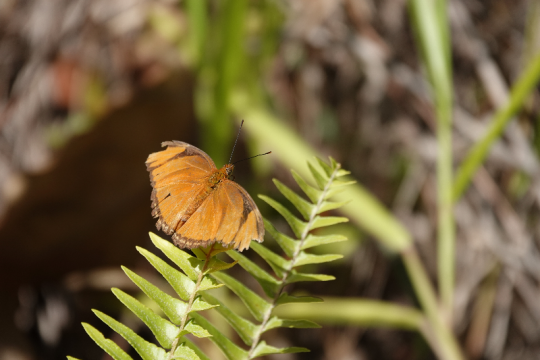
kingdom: Animalia
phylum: Arthropoda
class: Insecta
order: Lepidoptera
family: Nymphalidae
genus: Dryas
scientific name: Dryas iulia
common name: Julia
